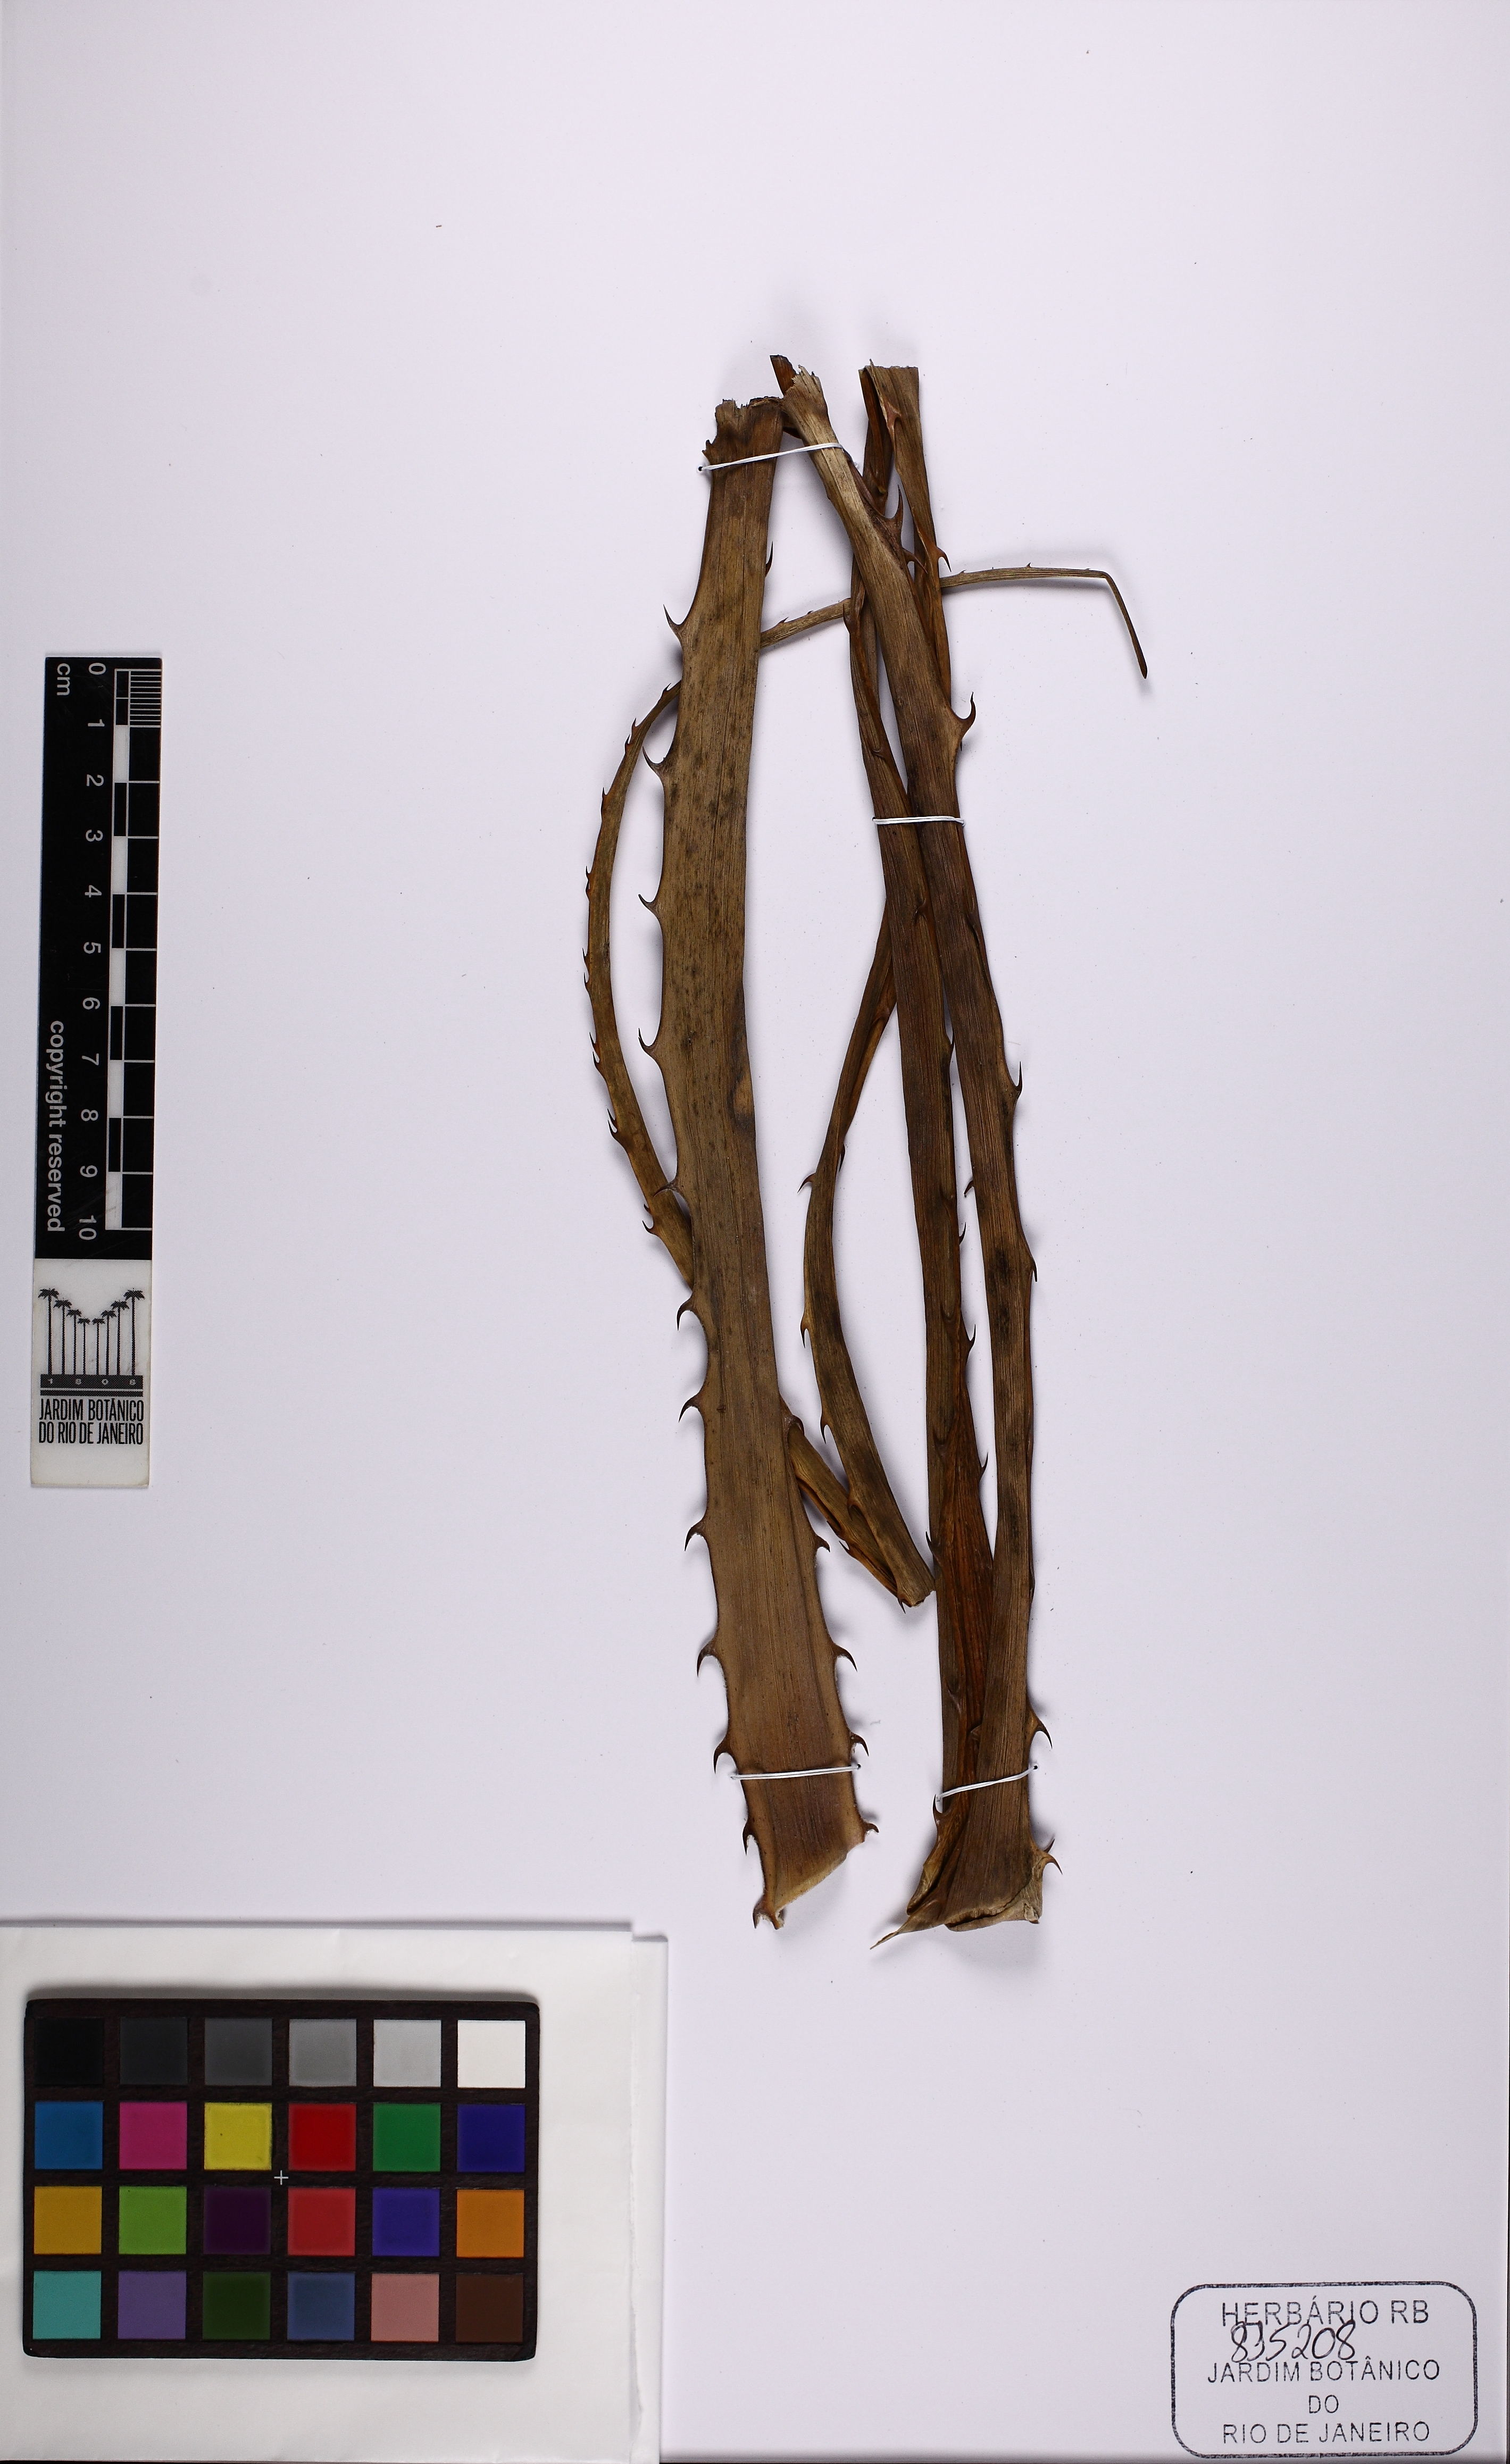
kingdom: Plantae
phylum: Tracheophyta
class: Liliopsida
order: Poales
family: Bromeliaceae
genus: Bromelia
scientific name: Bromelia reversacantha
